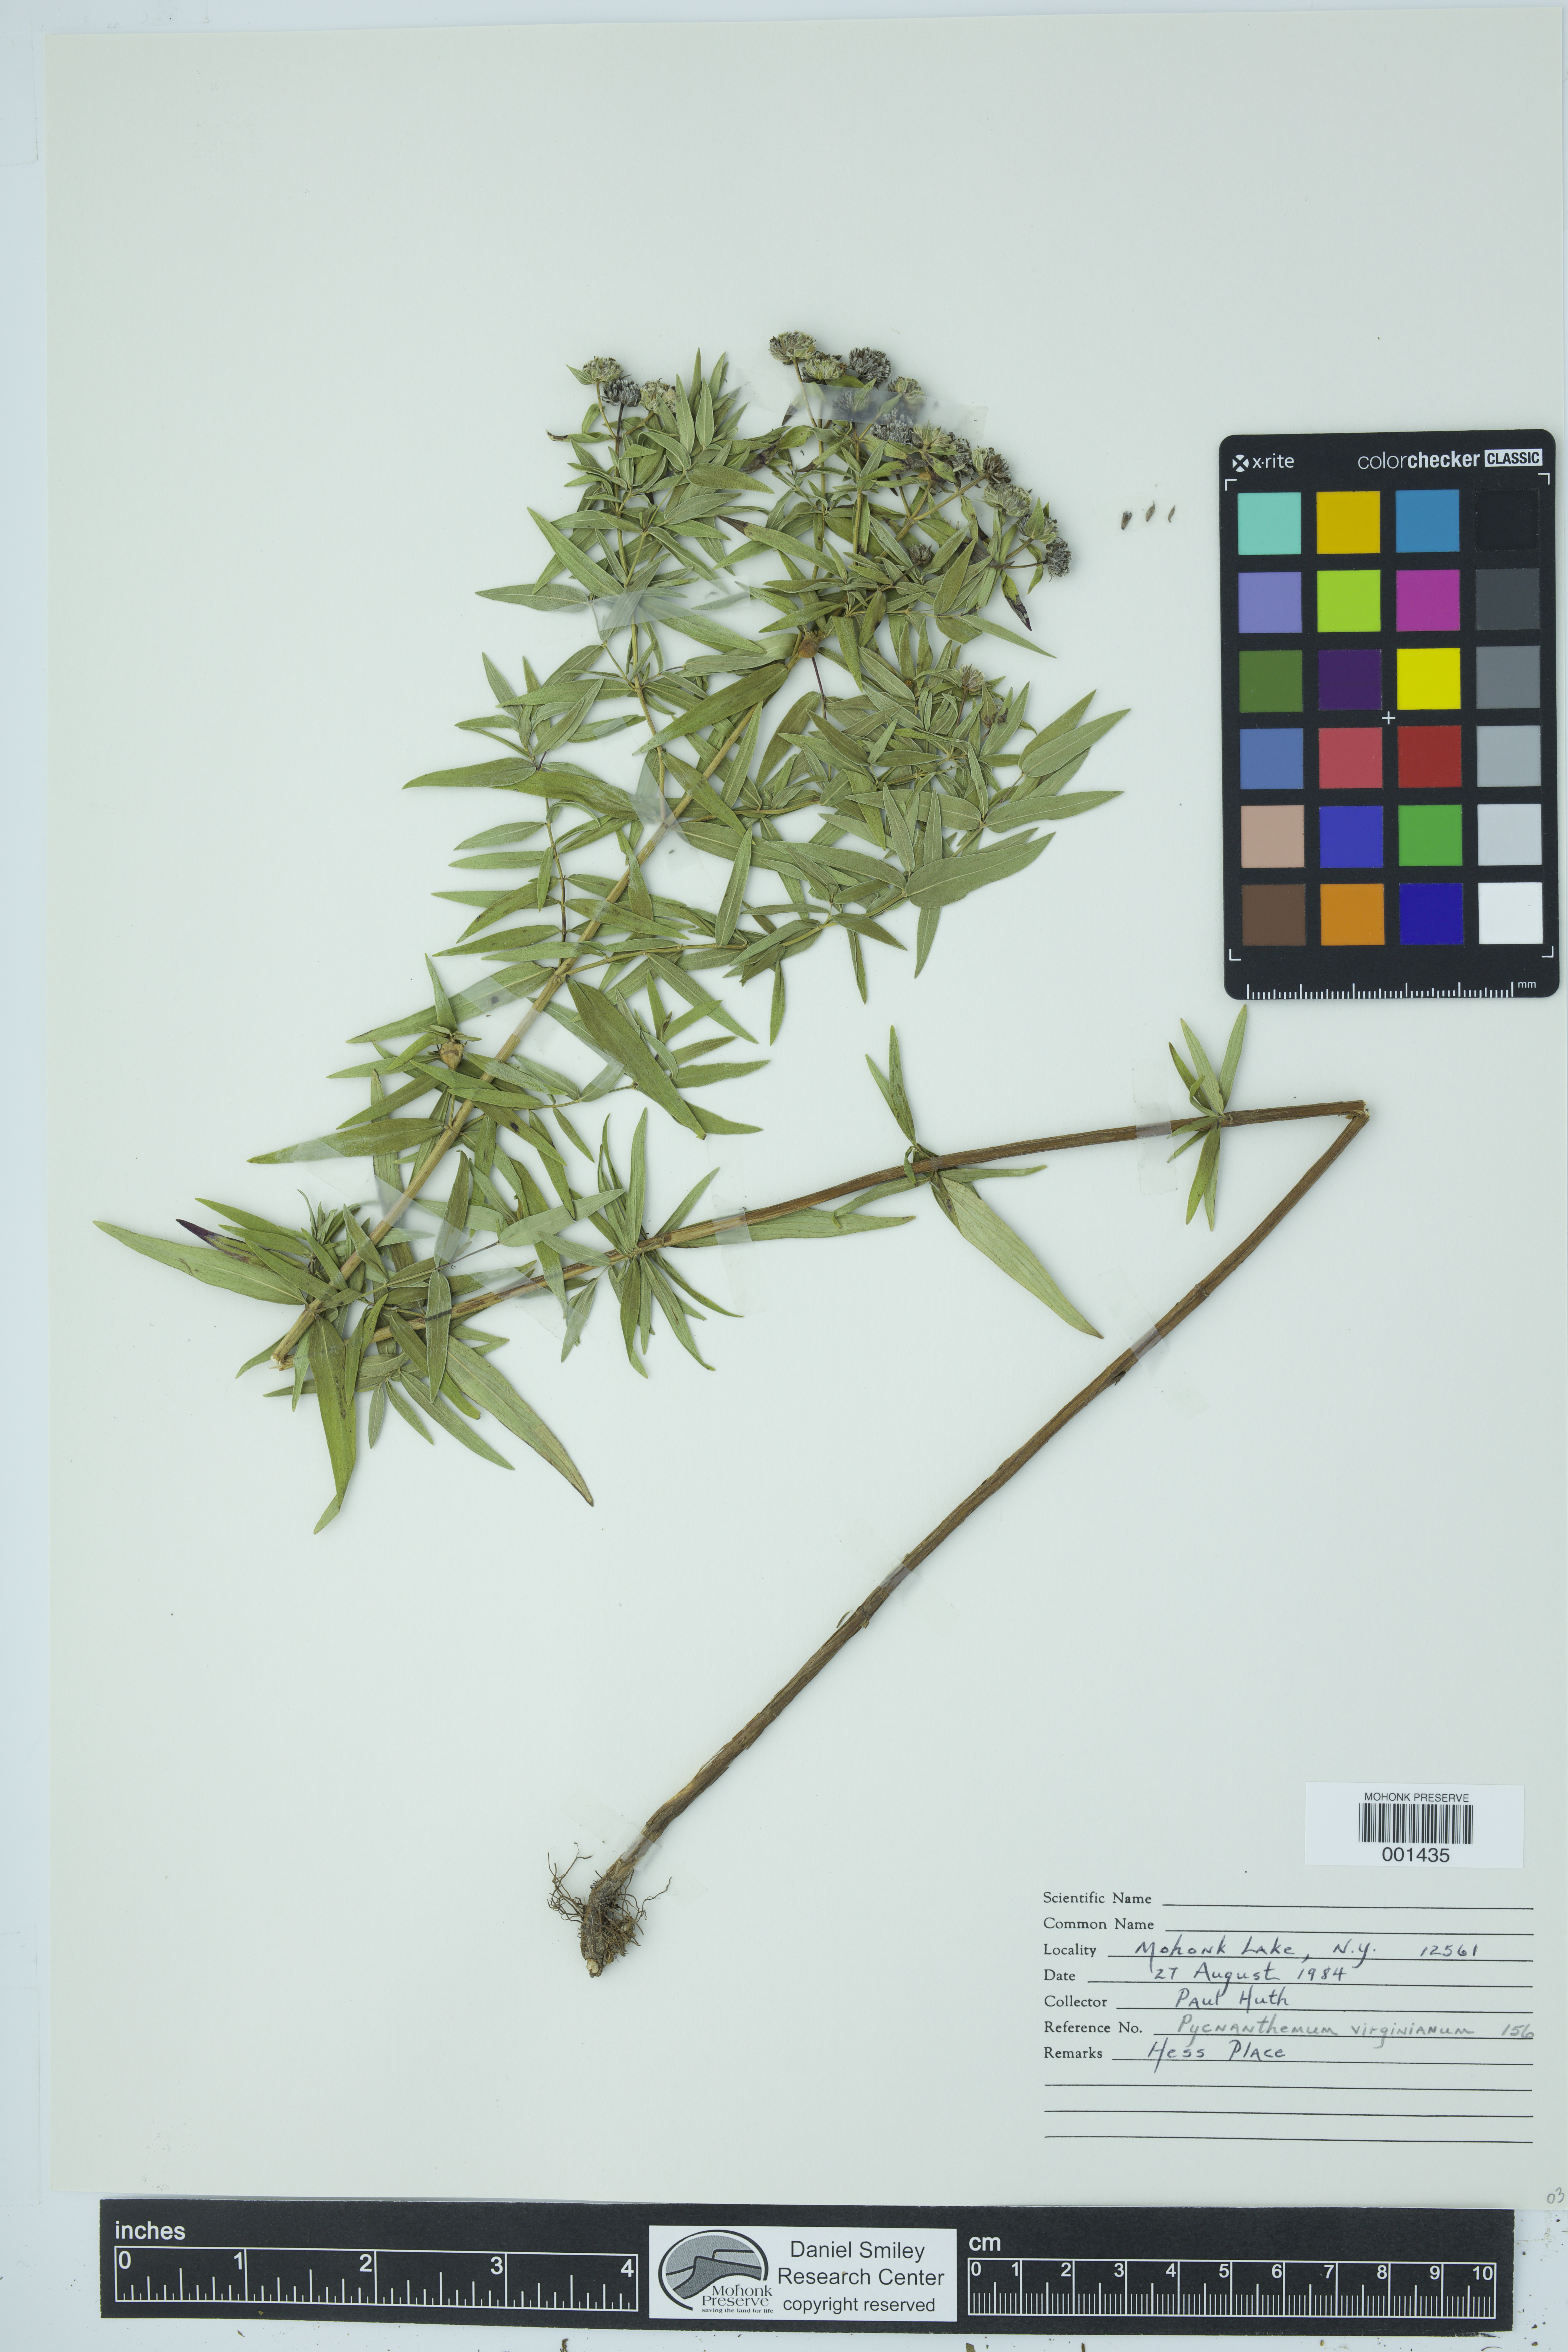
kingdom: Plantae
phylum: Tracheophyta
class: Magnoliopsida
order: Lamiales
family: Lamiaceae
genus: Pycnanthemum
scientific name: Pycnanthemum virginianum
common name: Virginia mountain-mint
